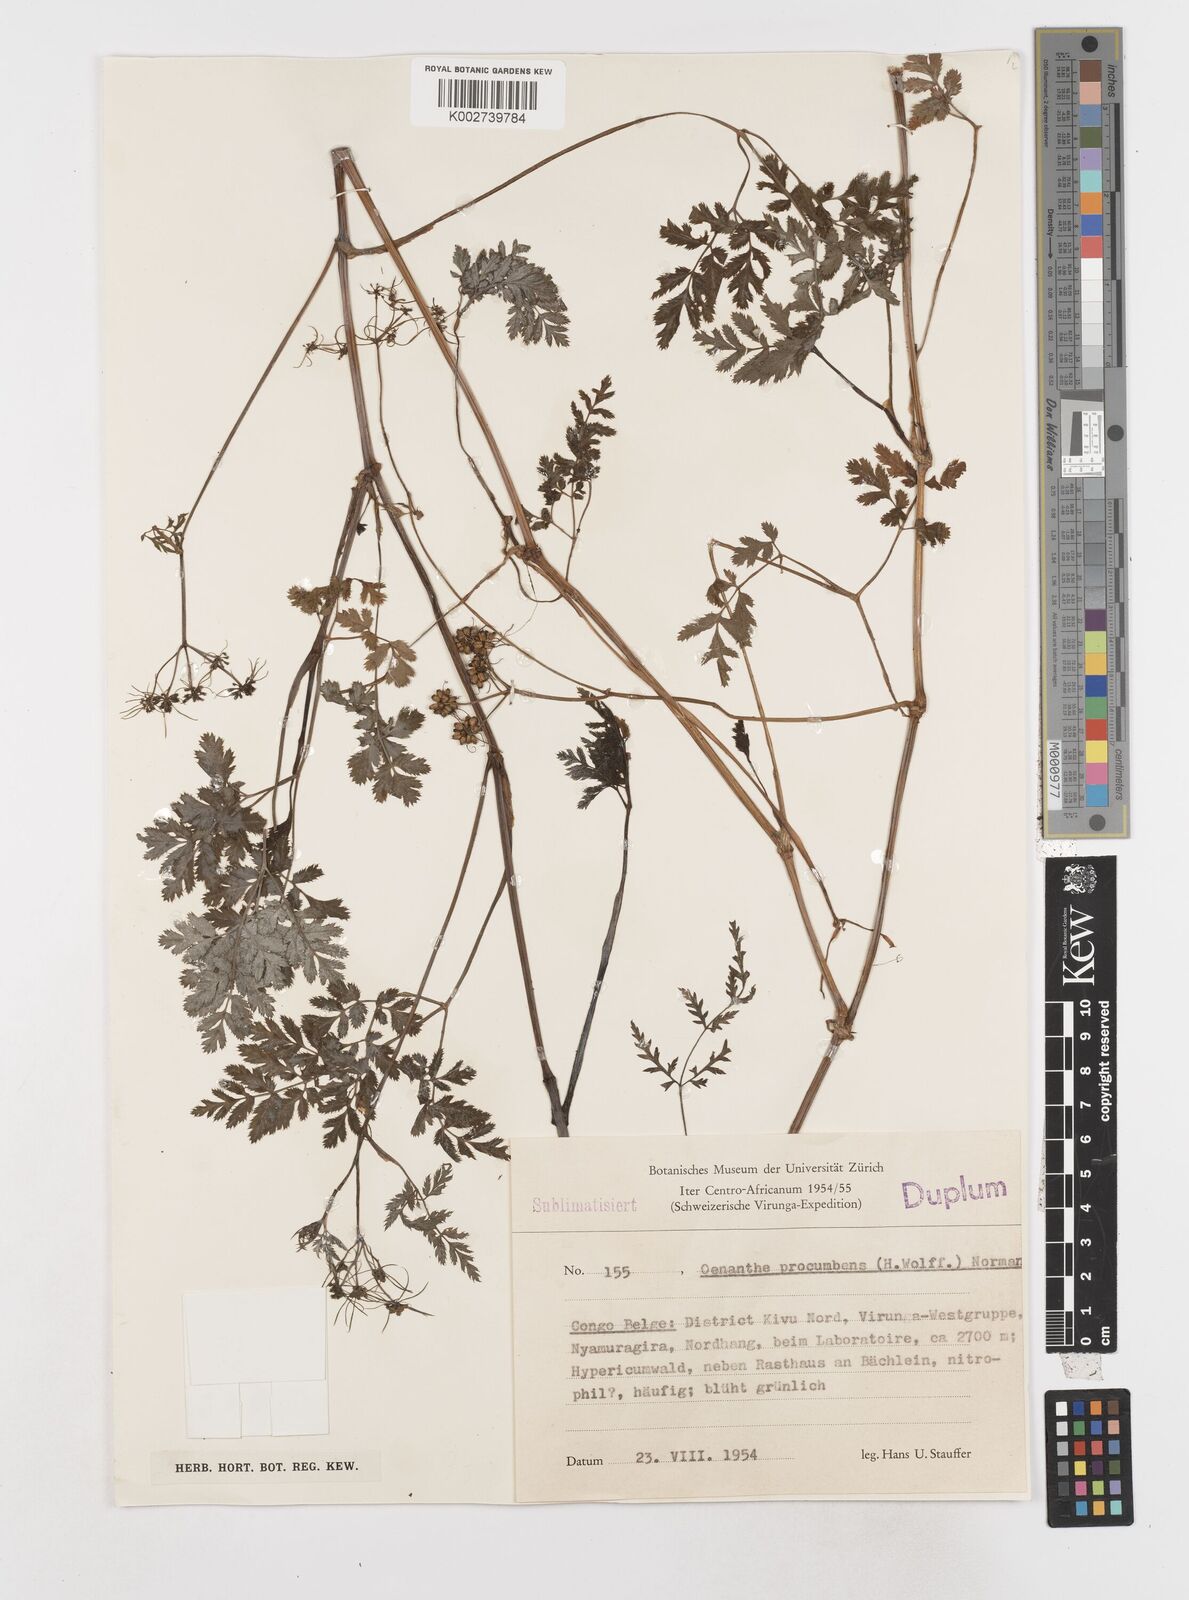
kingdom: Plantae
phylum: Tracheophyta
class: Magnoliopsida
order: Apiales
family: Apiaceae
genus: Oenanthe
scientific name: Oenanthe procumbens
